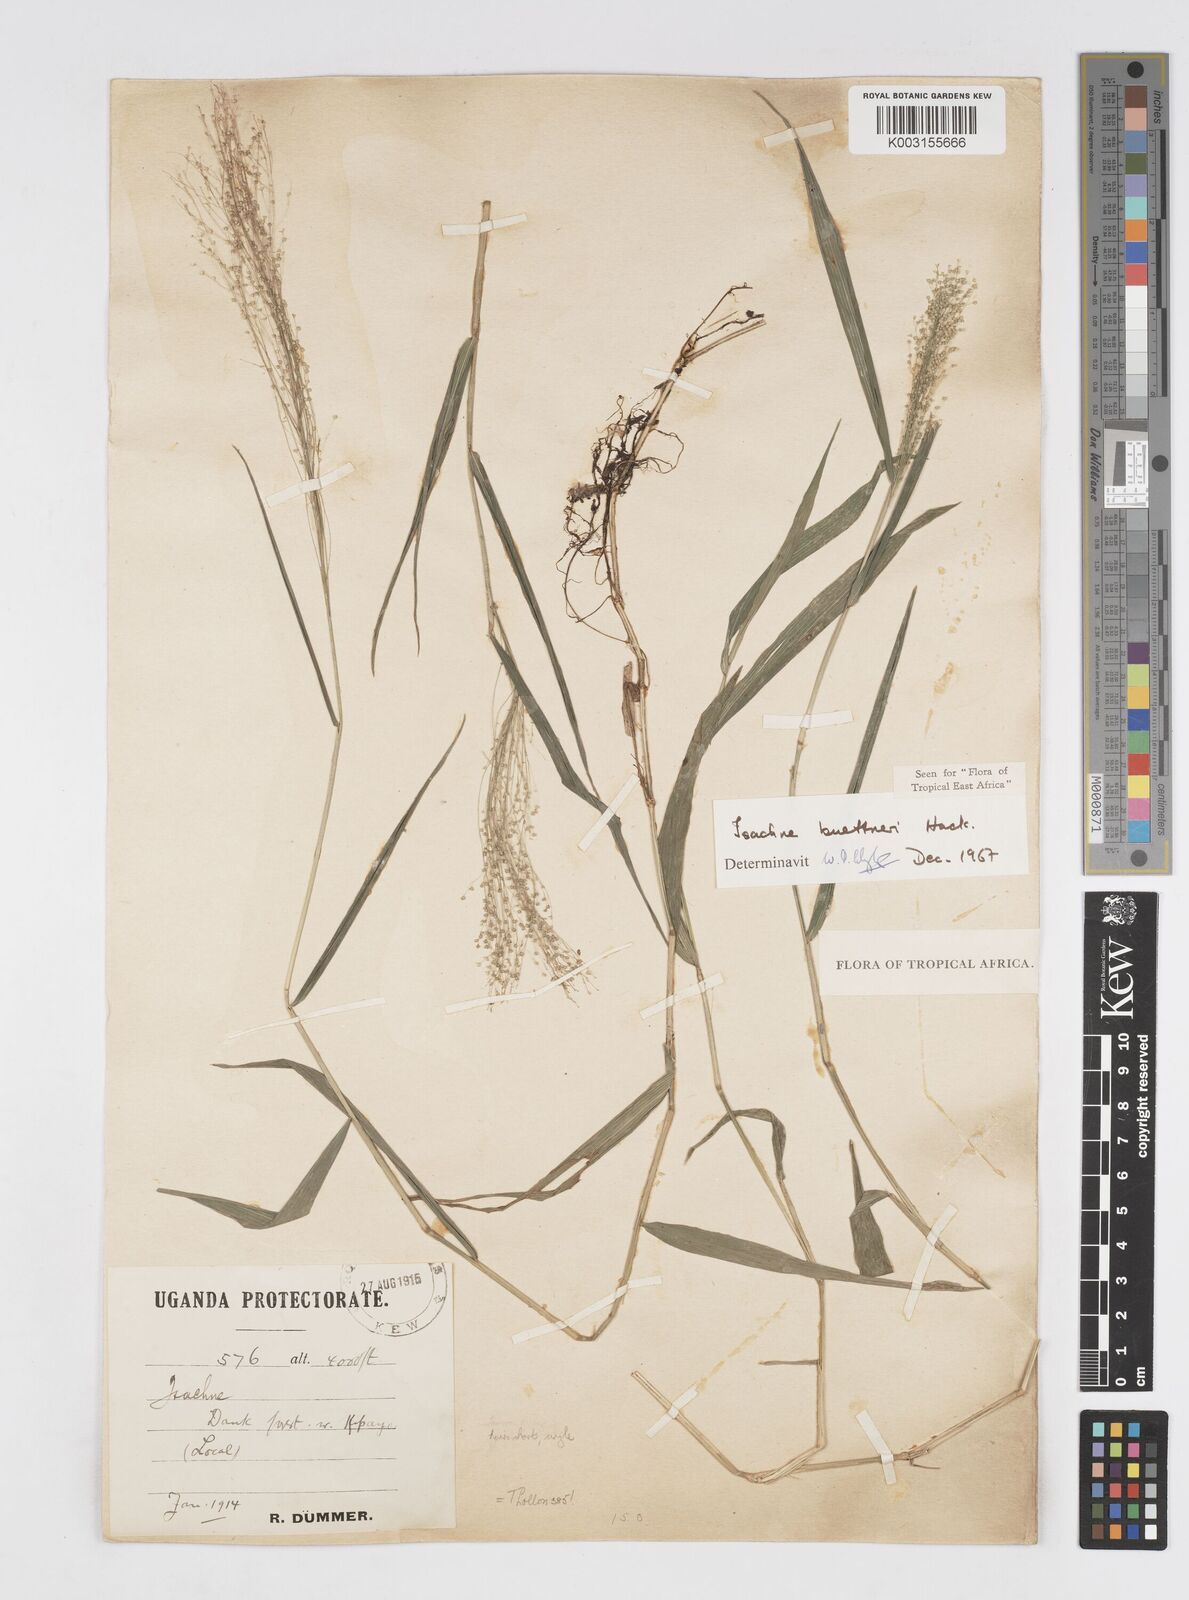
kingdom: Plantae
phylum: Tracheophyta
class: Liliopsida
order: Poales
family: Poaceae
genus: Isachne
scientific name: Isachne albens
